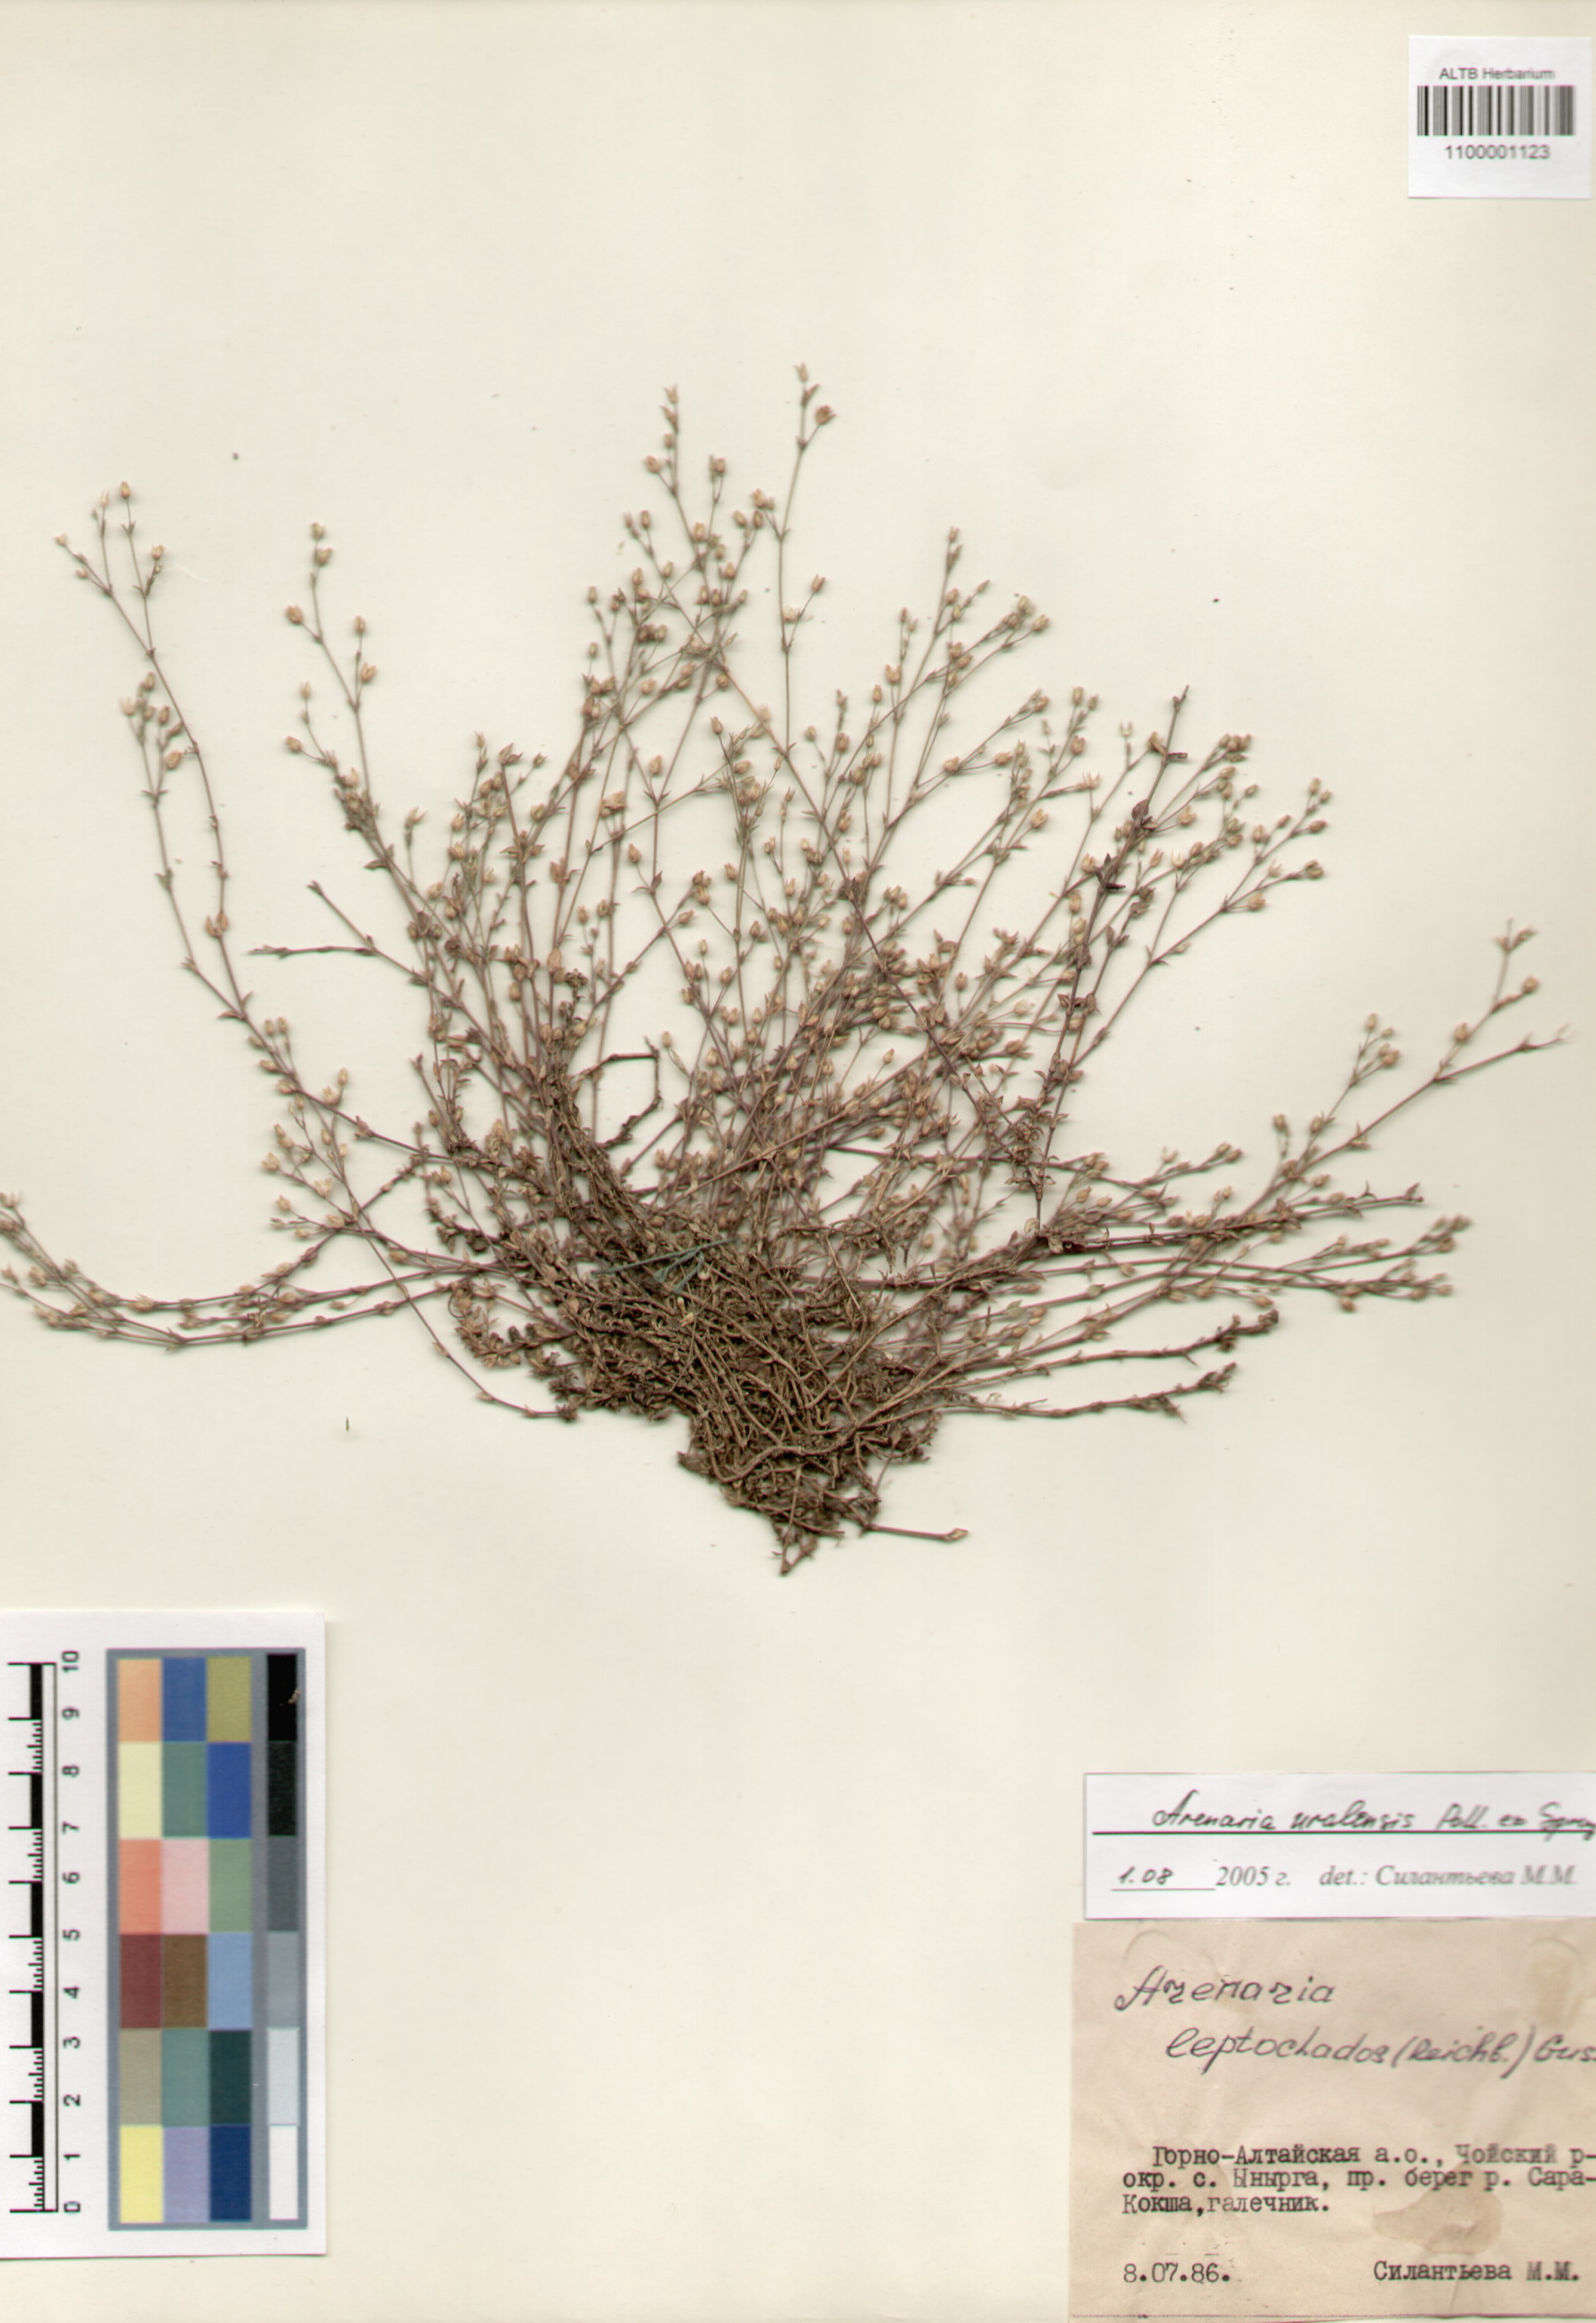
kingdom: Plantae
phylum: Tracheophyta
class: Magnoliopsida
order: Caryophyllales
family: Caryophyllaceae
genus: Arenaria
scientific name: Arenaria serpyllifolia
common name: Thyme-leaved sandwort
